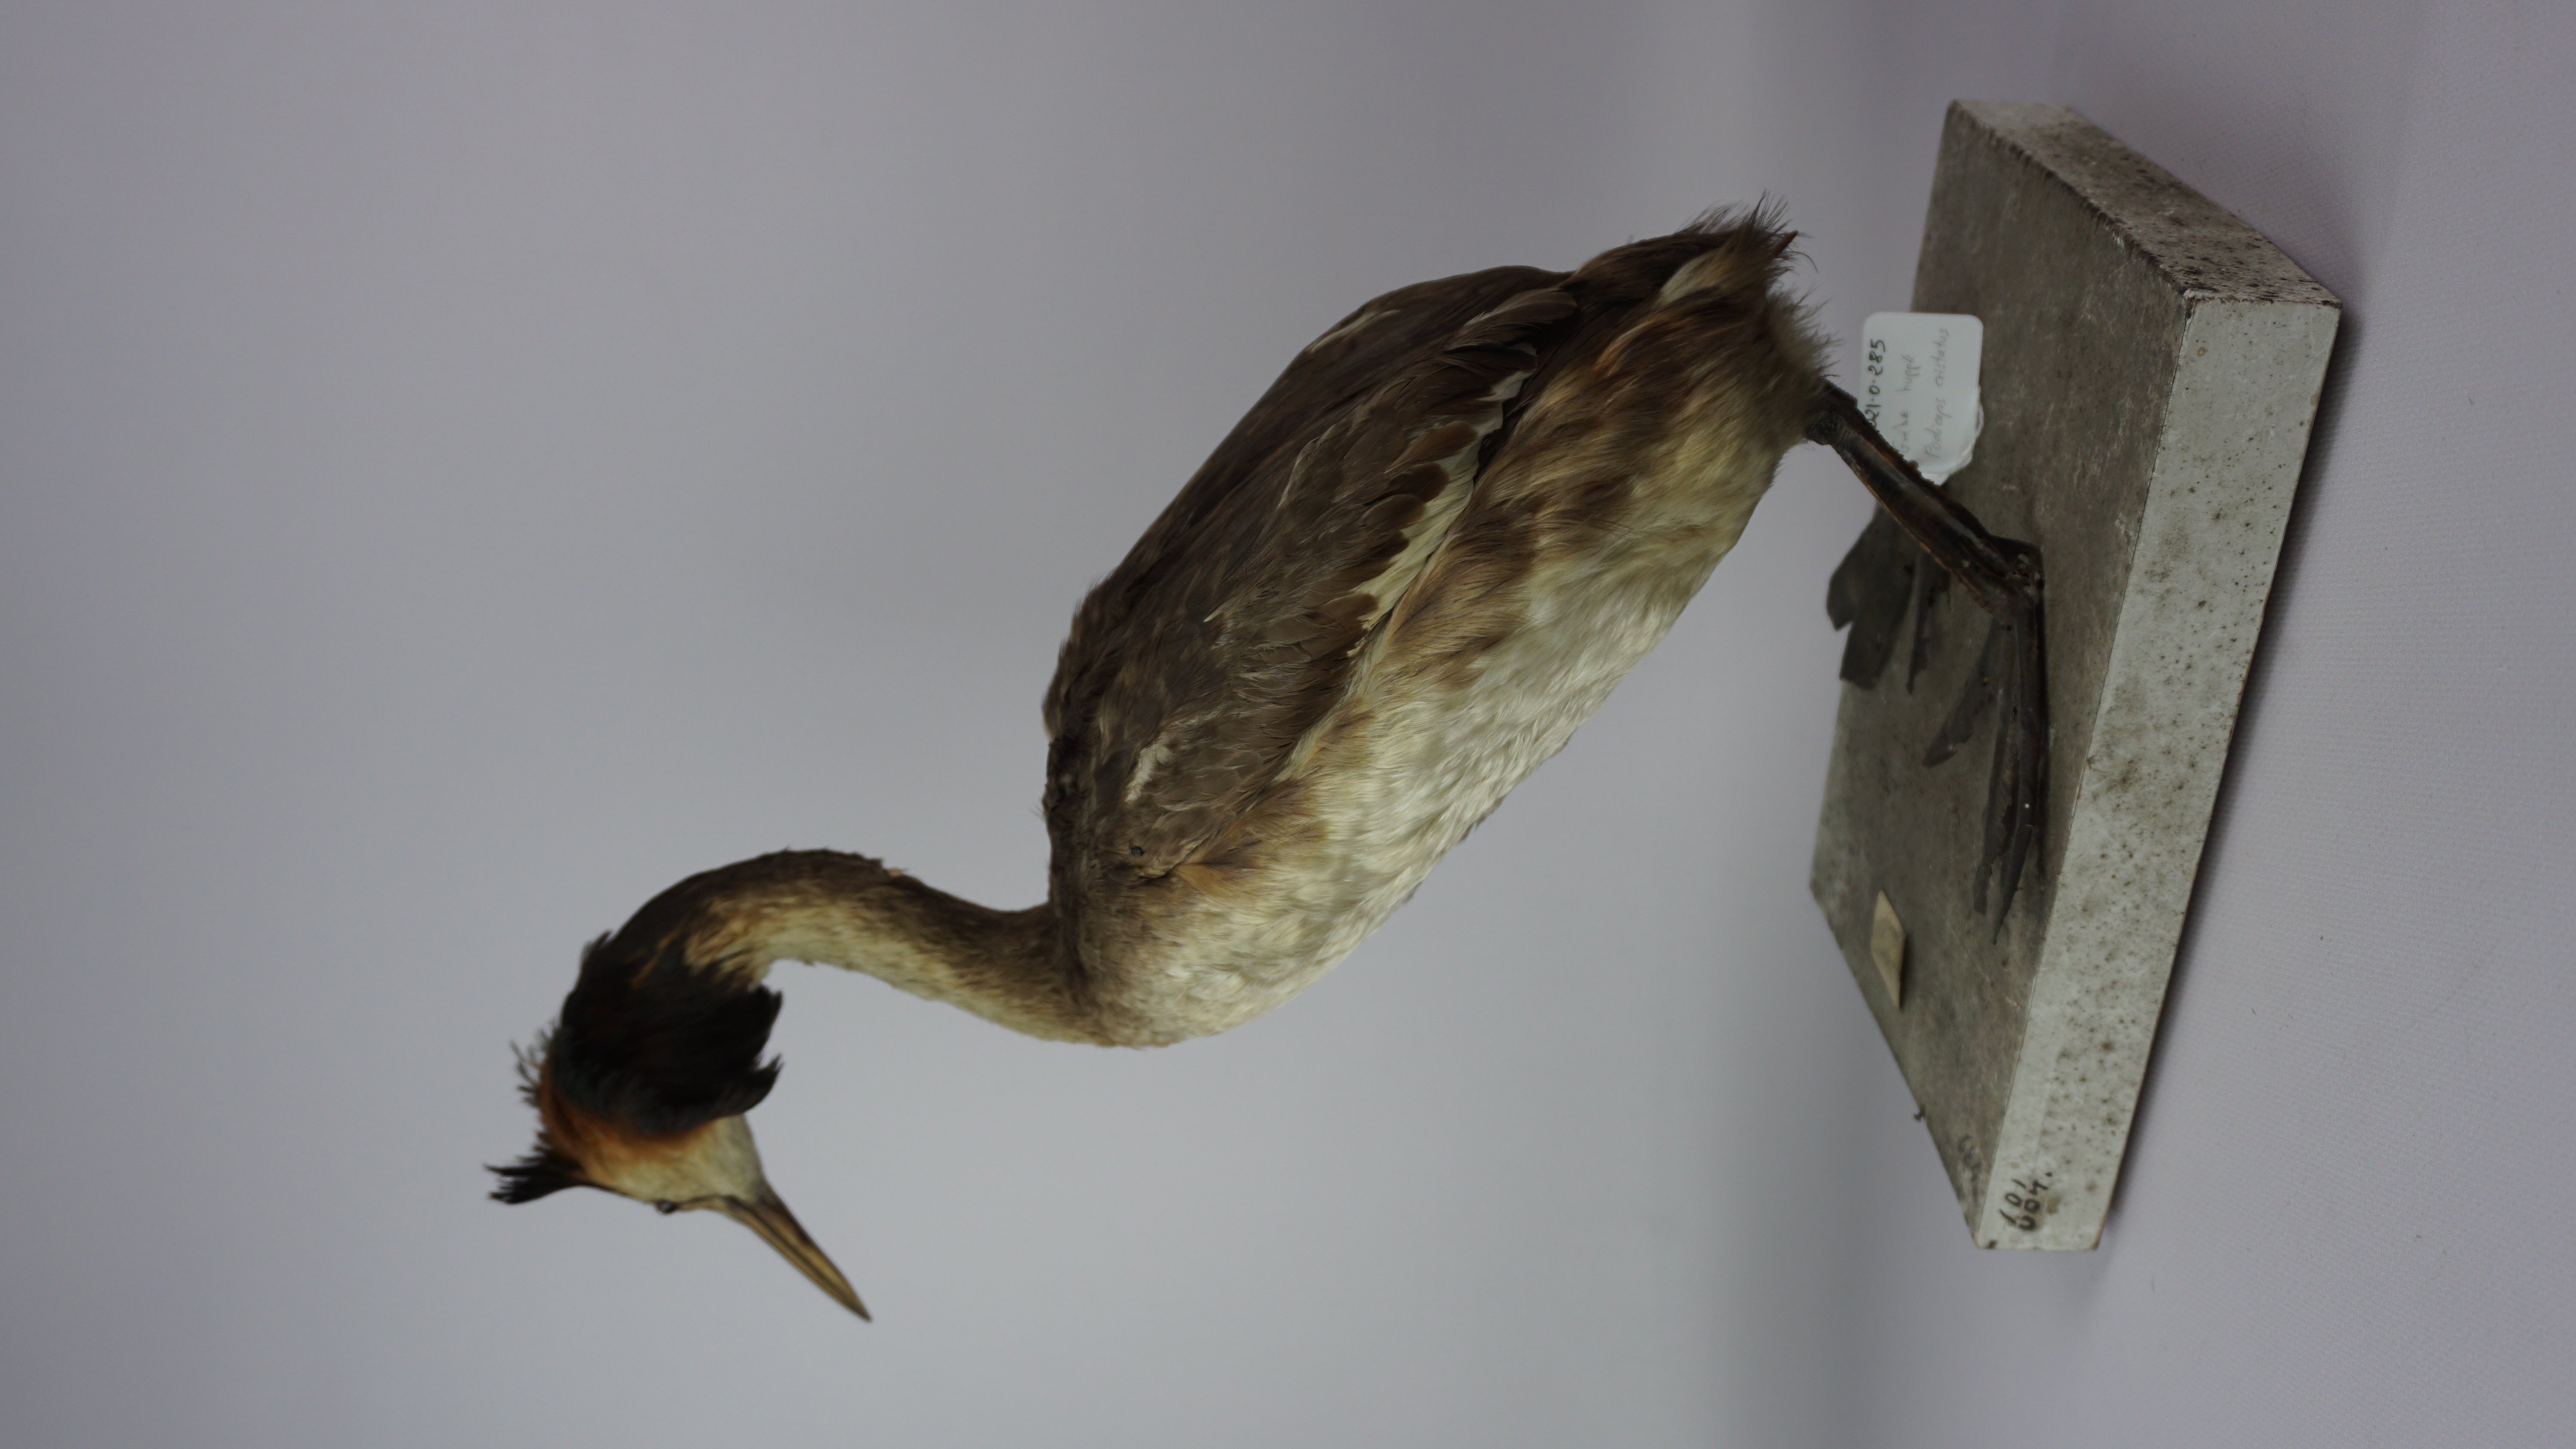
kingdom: Animalia
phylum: Chordata
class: Aves
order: Podicipediformes
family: Podicipedidae
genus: Podiceps
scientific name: Podiceps cristatus
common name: Great crested grebe
